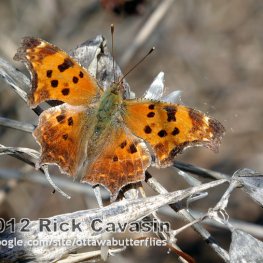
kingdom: Animalia
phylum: Arthropoda
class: Insecta
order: Lepidoptera
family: Nymphalidae
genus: Polygonia
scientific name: Polygonia comma
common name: Eastern Comma
